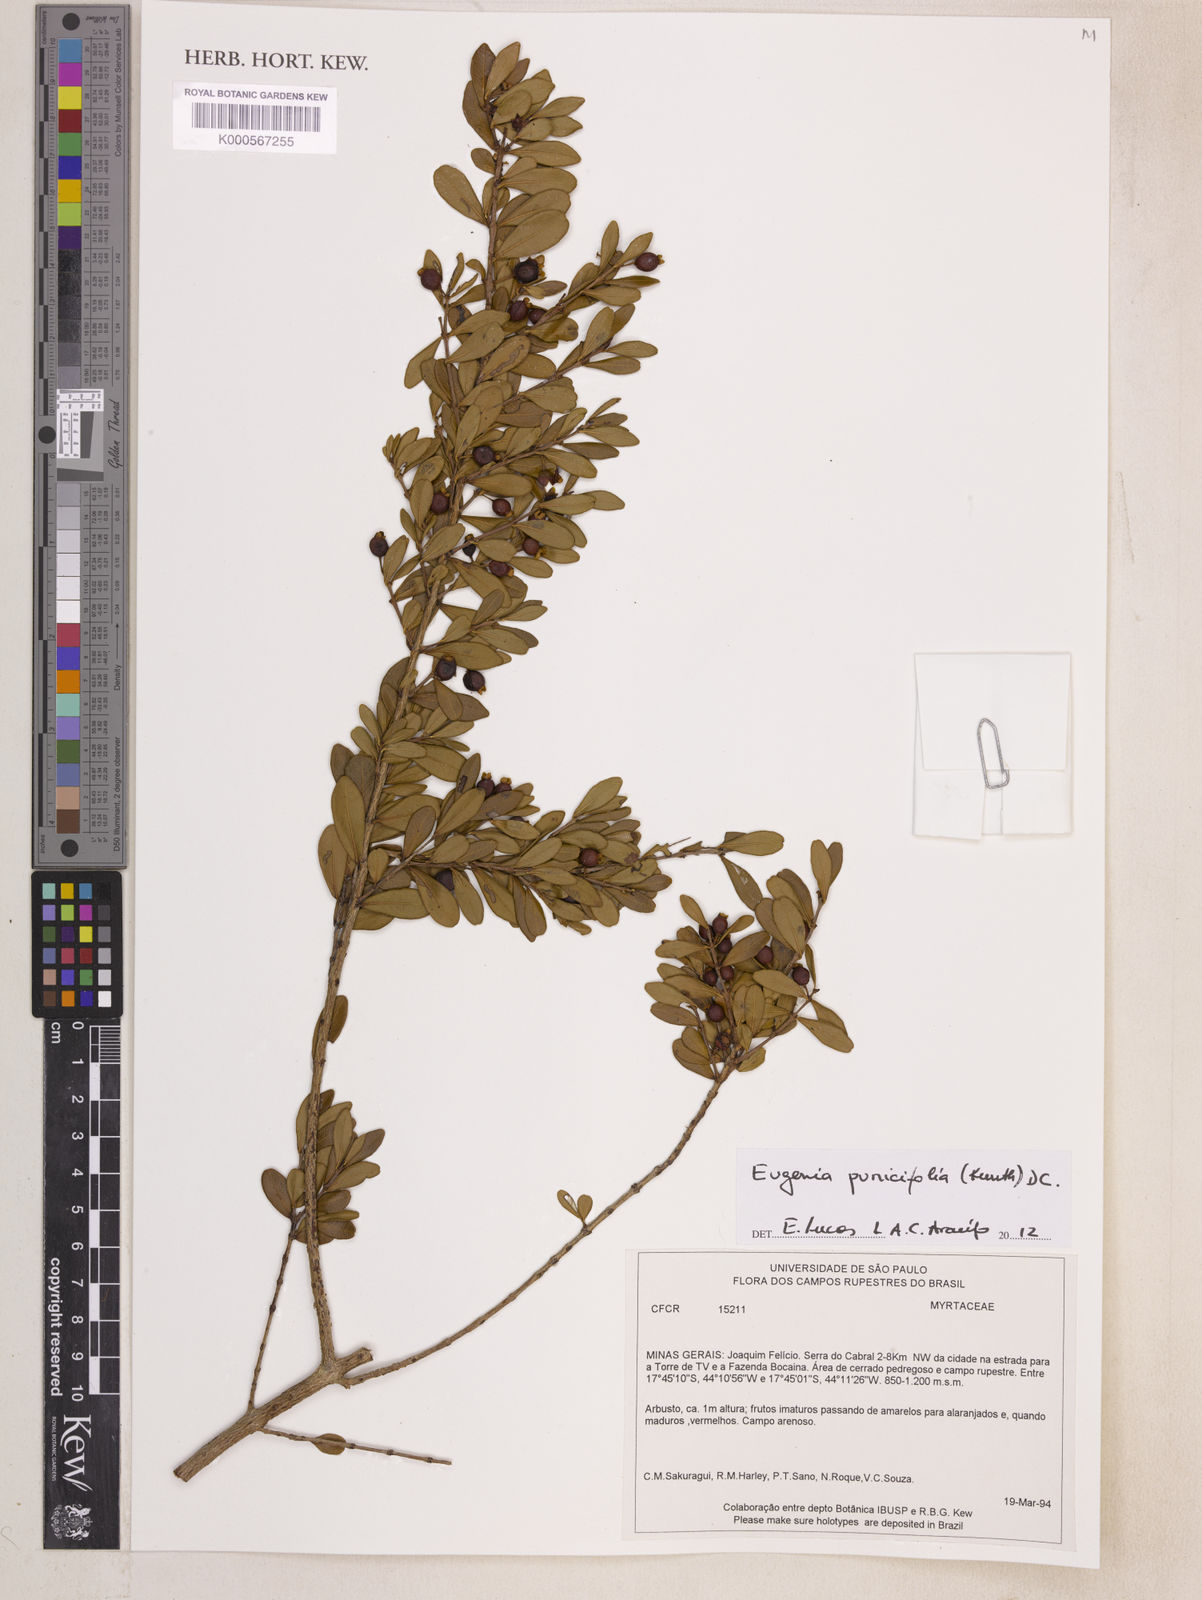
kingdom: Plantae
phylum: Tracheophyta
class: Magnoliopsida
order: Myrtales
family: Myrtaceae
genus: Eugenia
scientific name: Eugenia punicifolia
